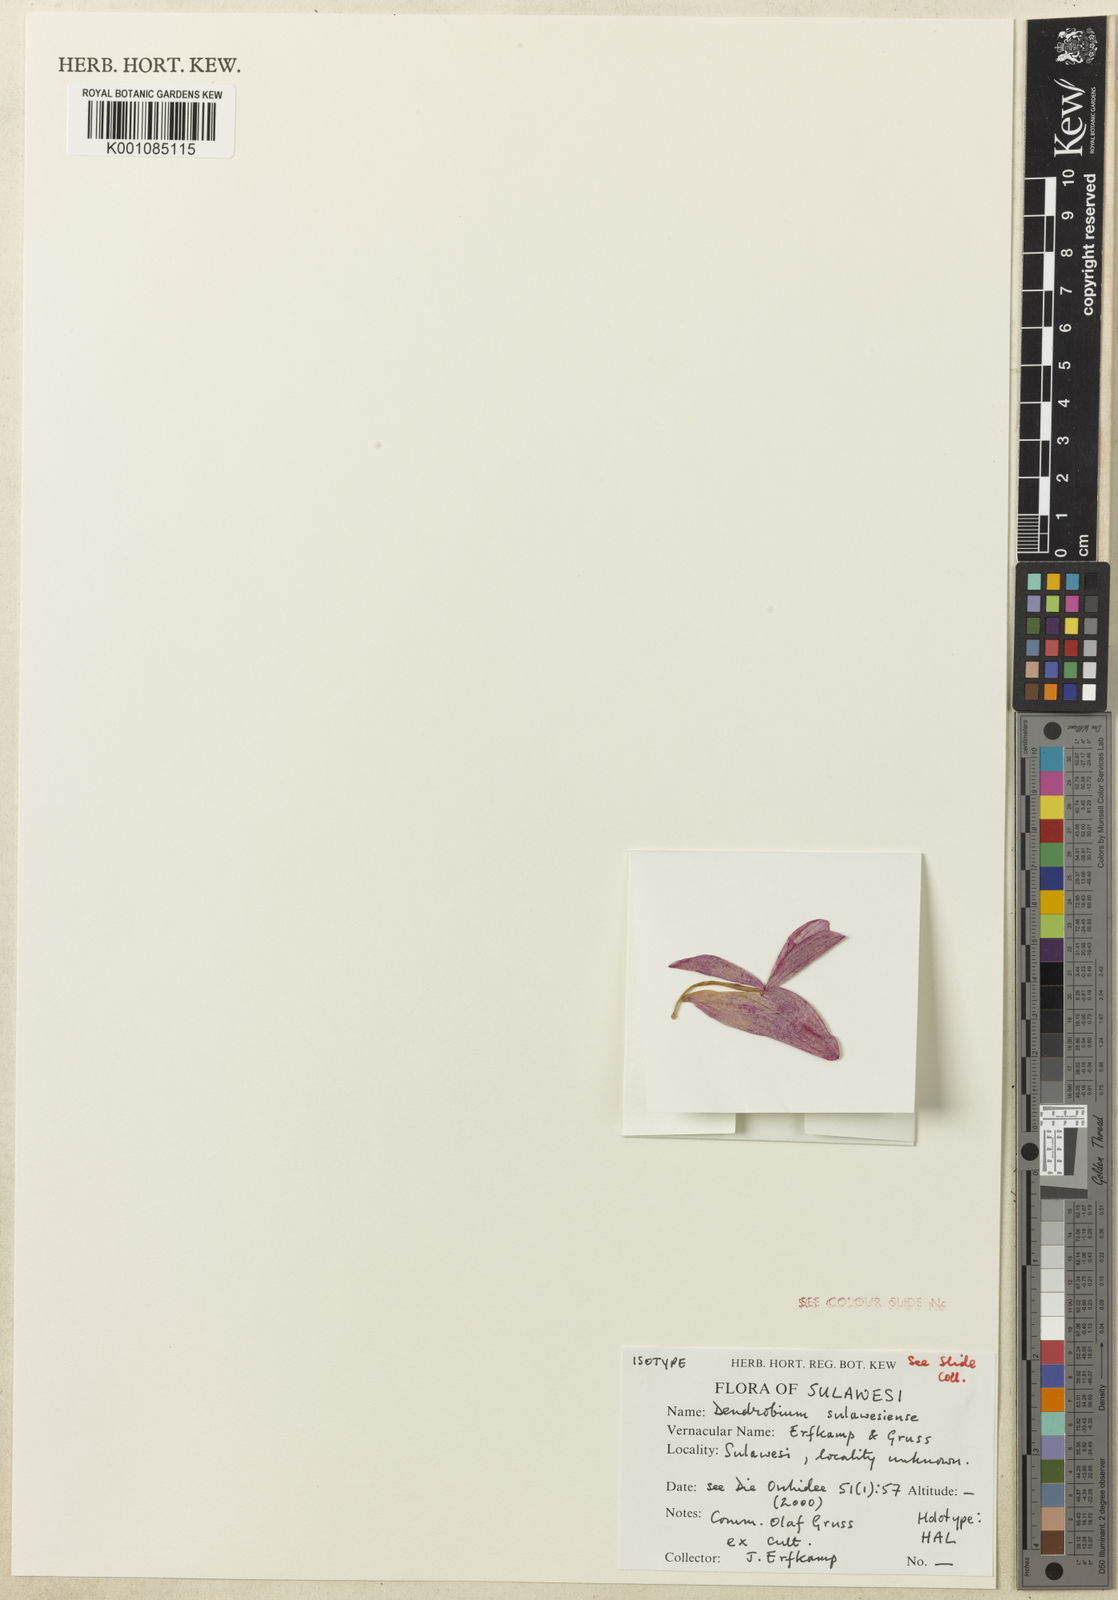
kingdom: Plantae
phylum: Tracheophyta
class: Liliopsida
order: Asparagales
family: Orchidaceae
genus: Dendrobium
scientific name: Dendrobium glomeratum
